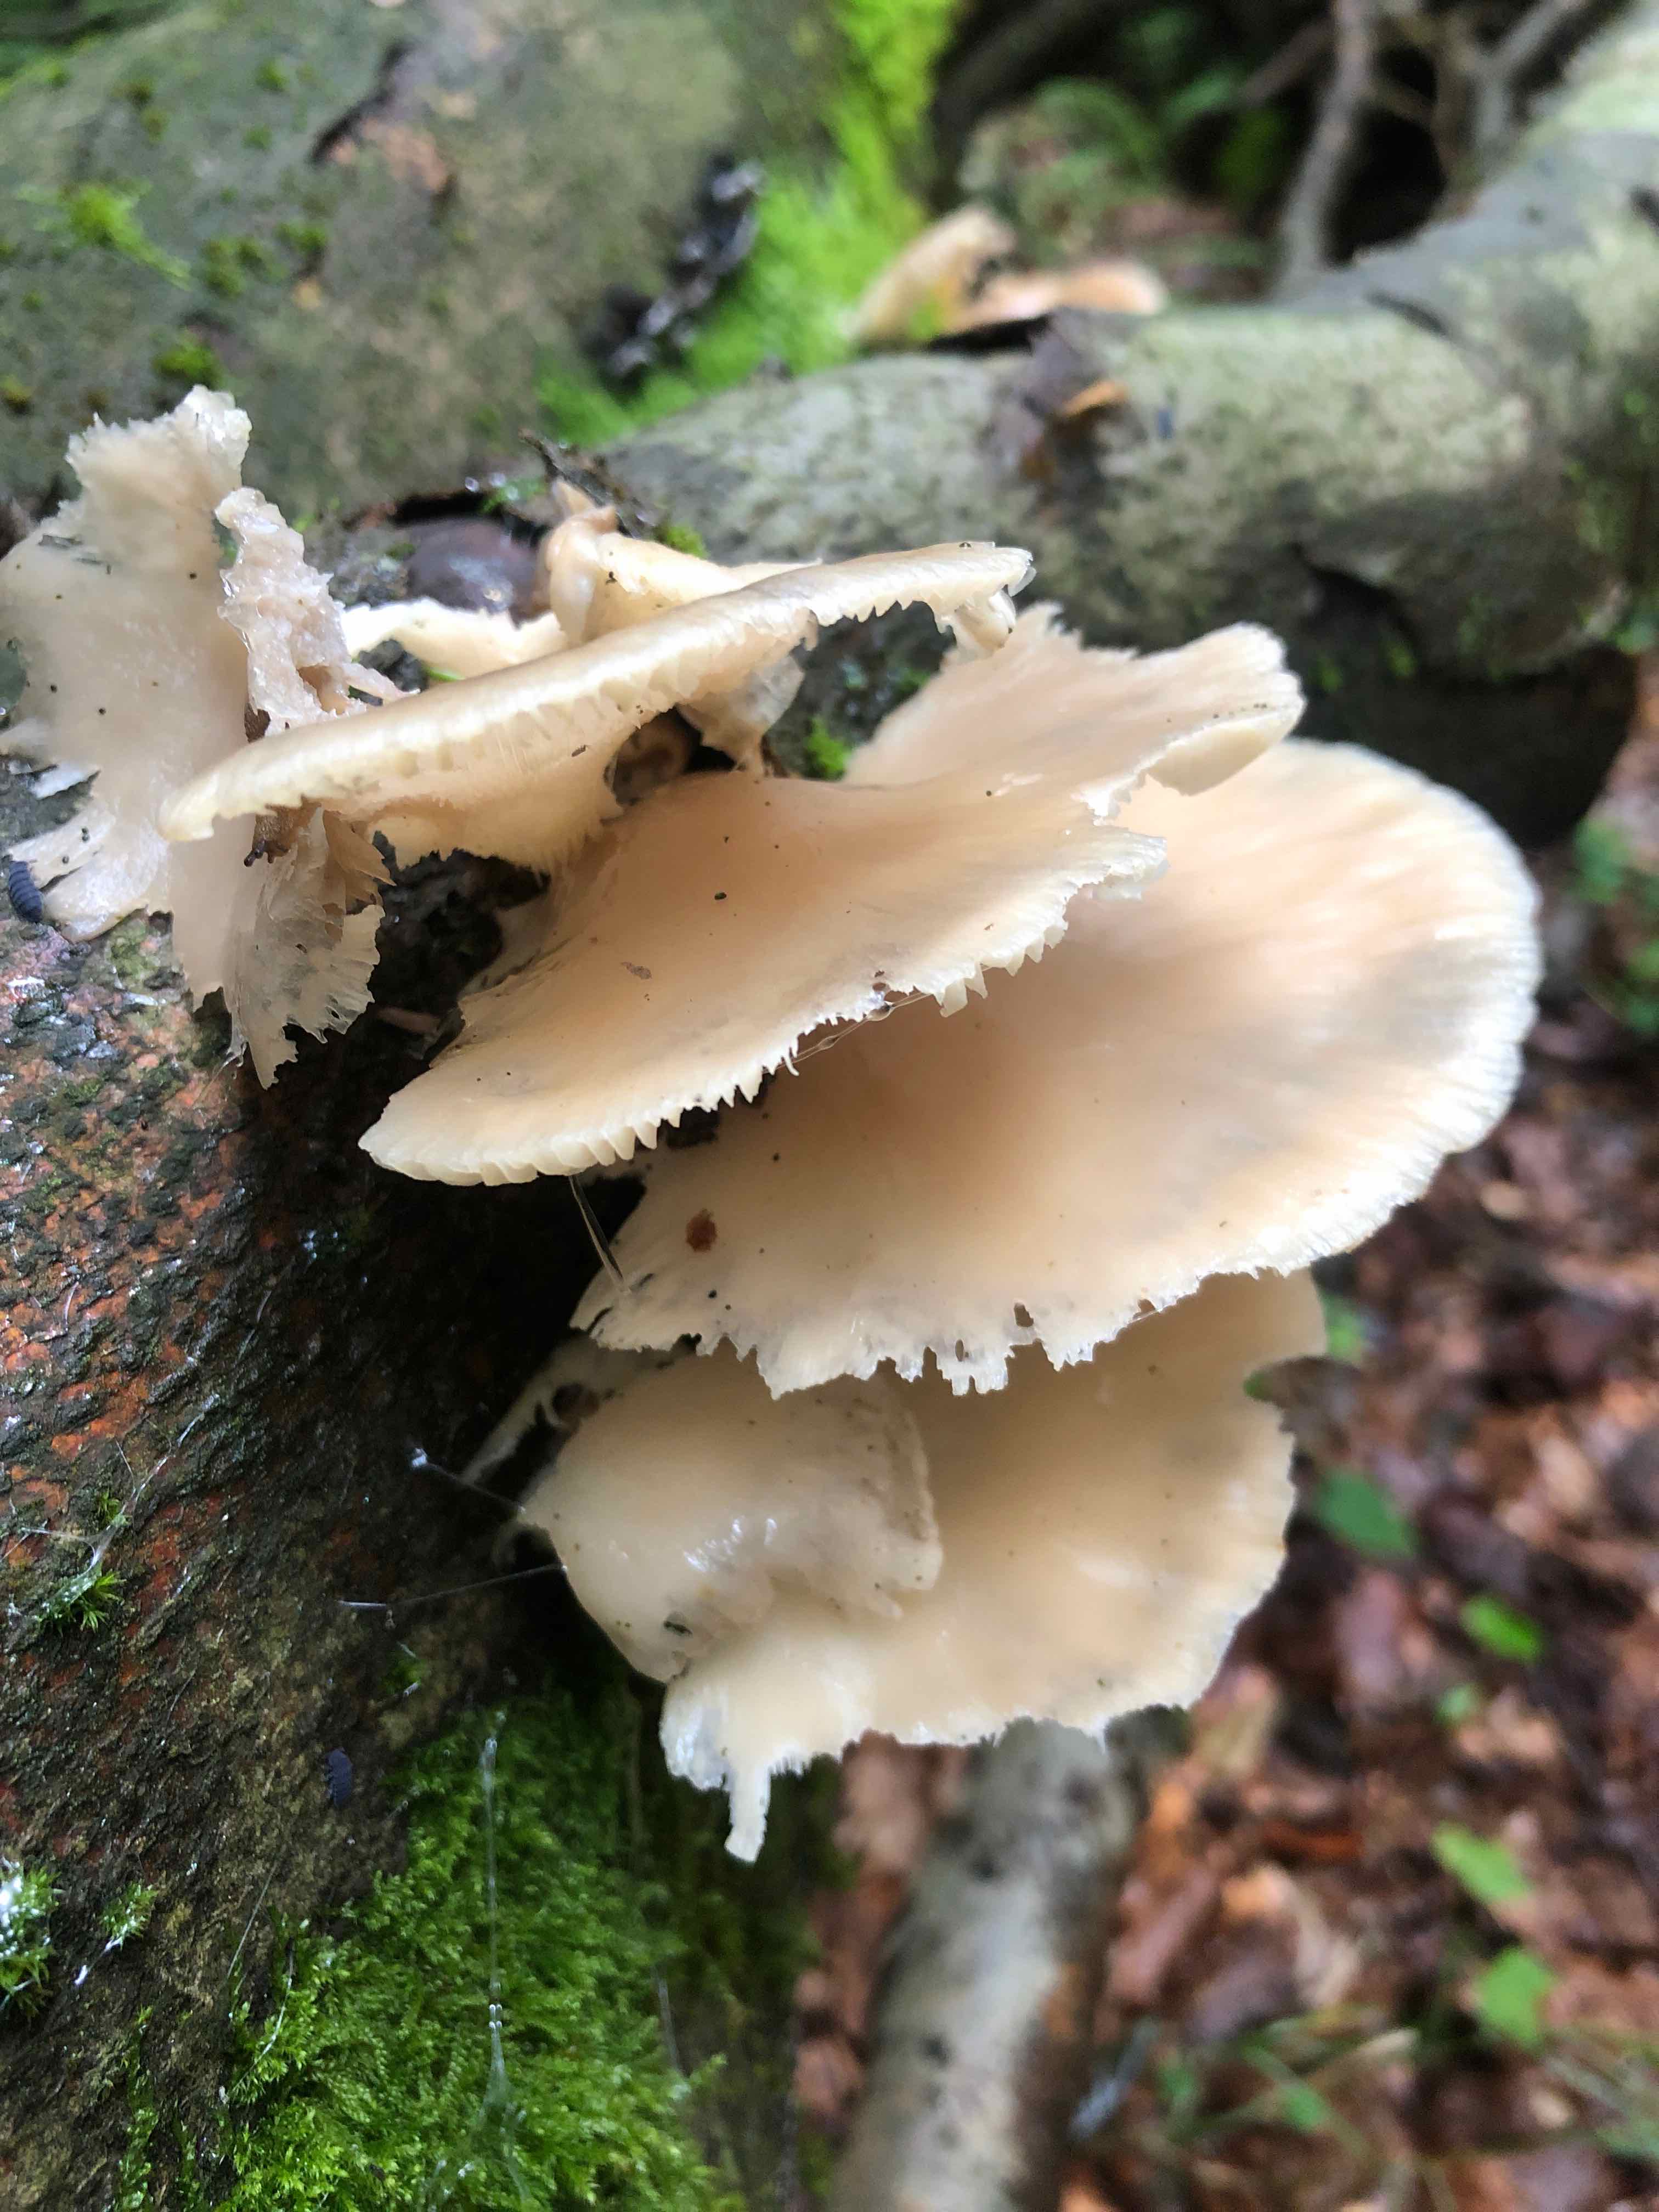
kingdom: Fungi
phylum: Basidiomycota
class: Agaricomycetes
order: Agaricales
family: Pleurotaceae
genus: Pleurotus
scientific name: Pleurotus pulmonarius
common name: sommer-østershat
